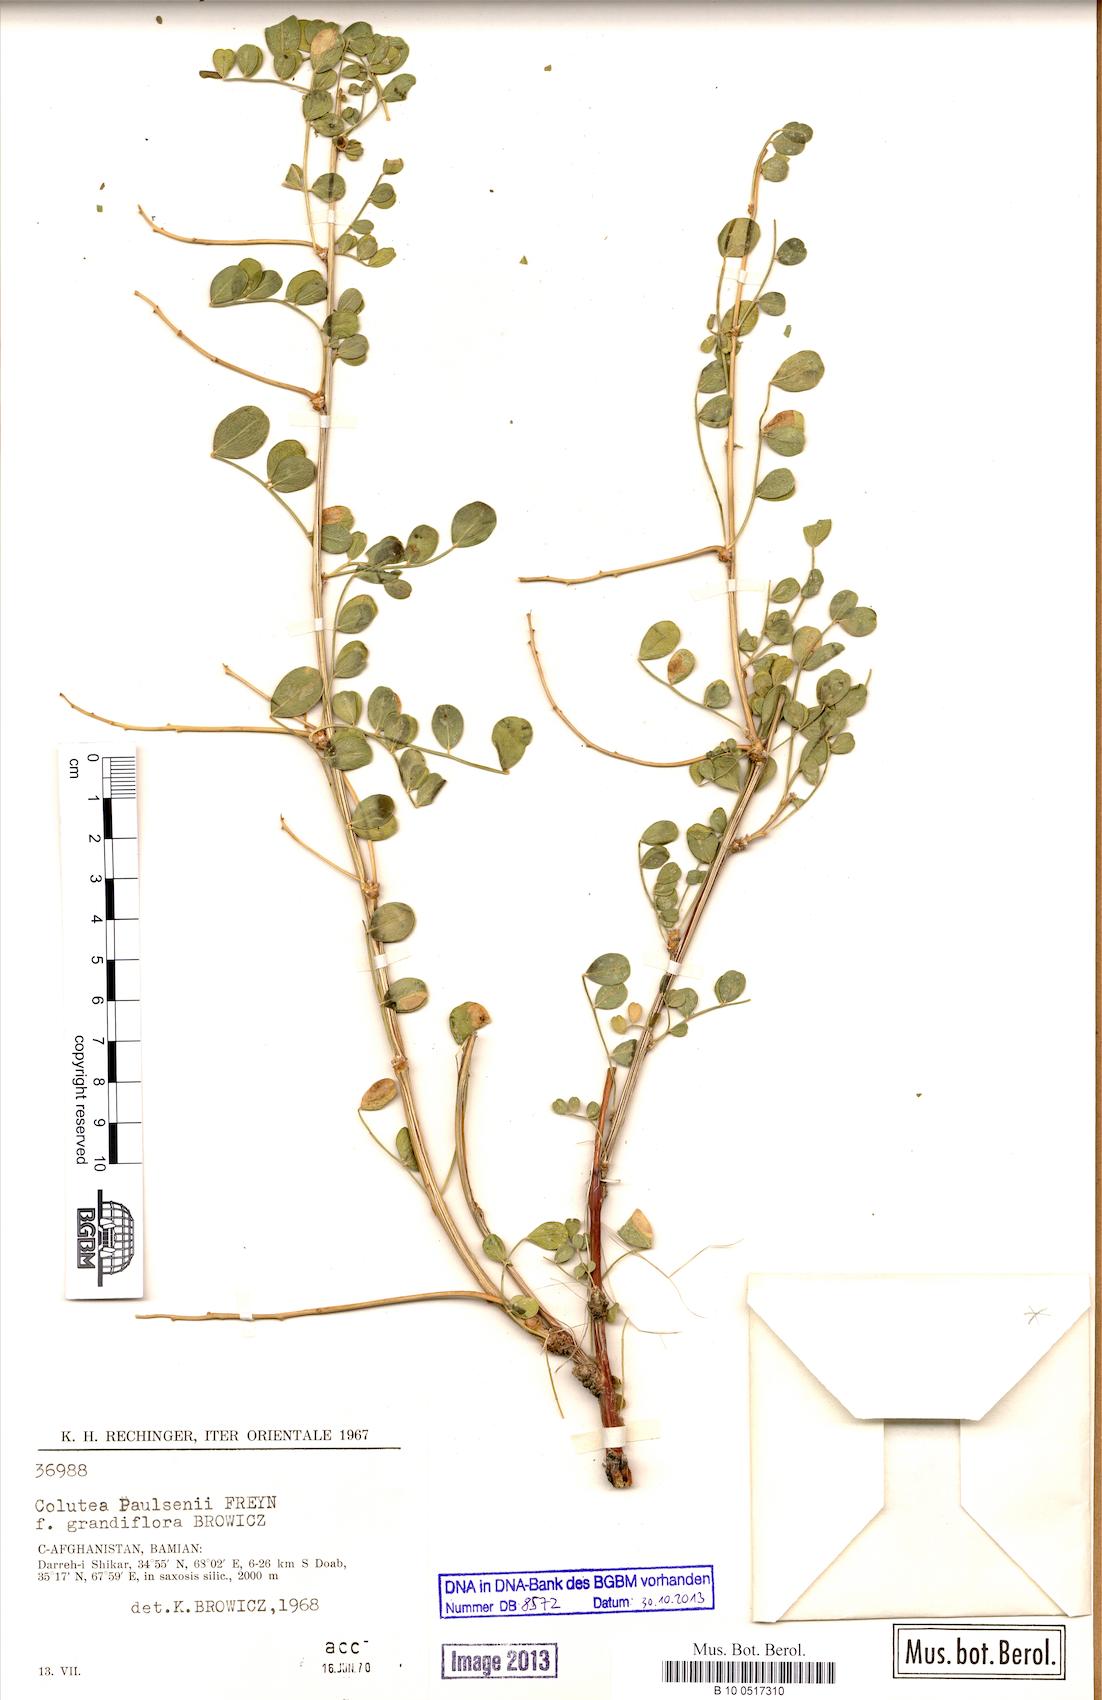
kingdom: Plantae
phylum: Tracheophyta
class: Magnoliopsida
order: Fabales
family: Fabaceae
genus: Colutea
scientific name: Colutea paulsenii
